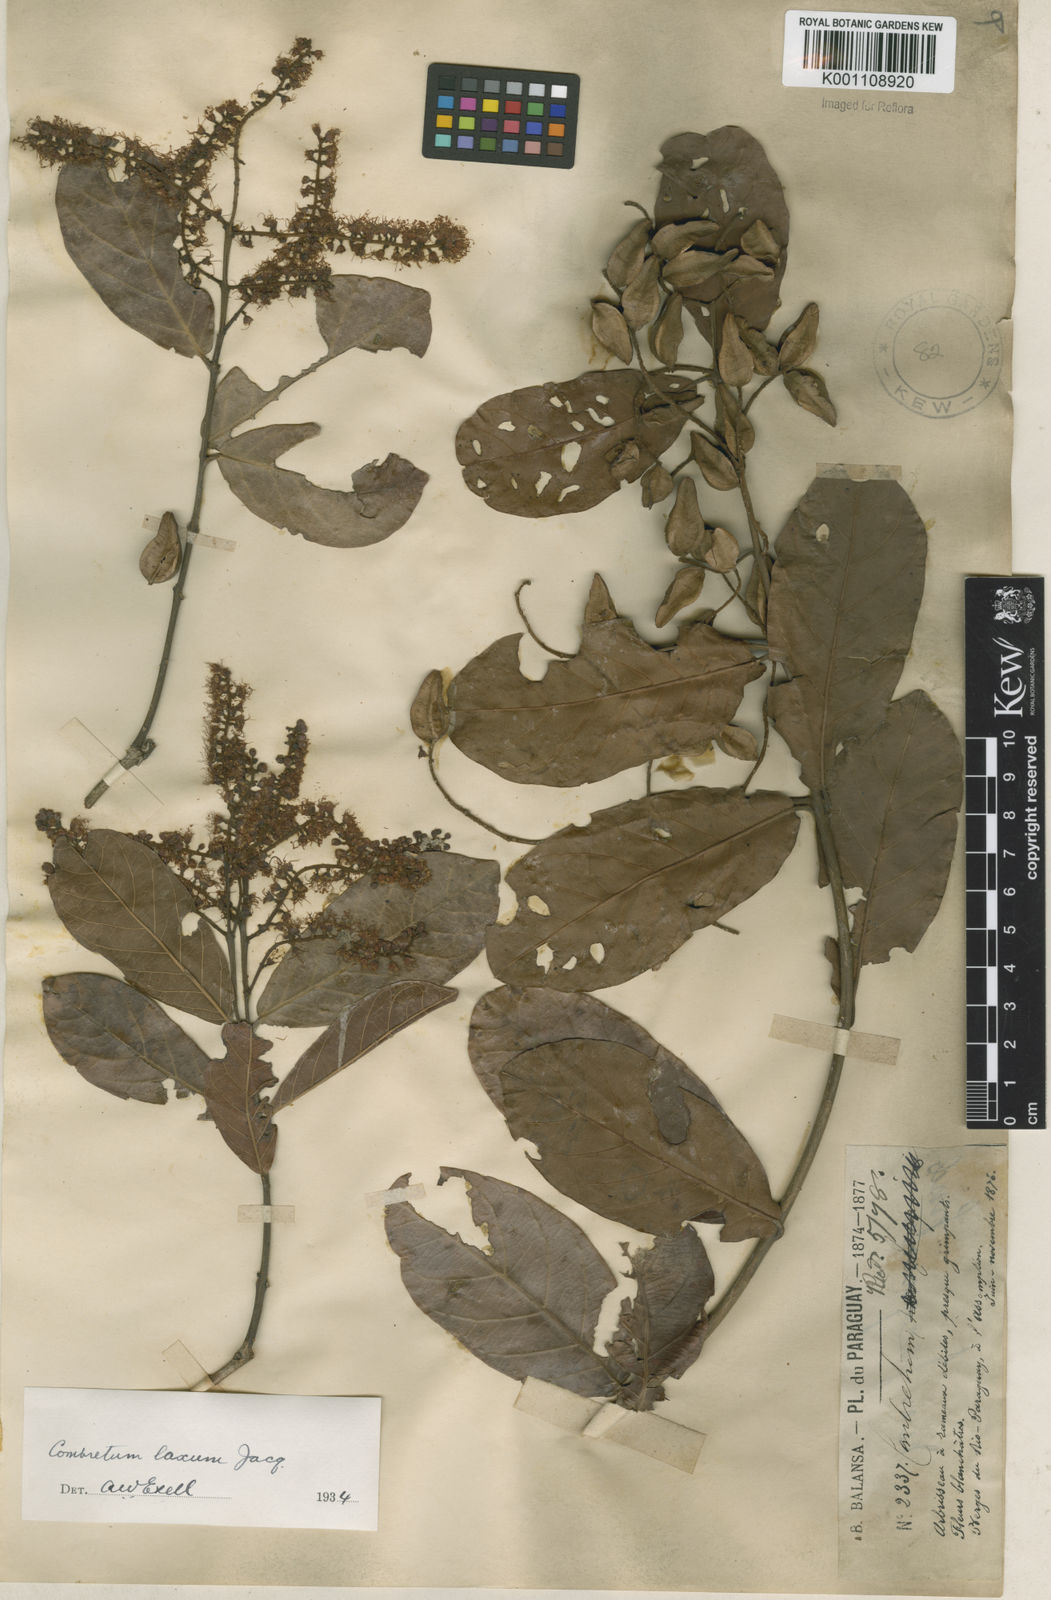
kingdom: Plantae
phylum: Tracheophyta
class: Magnoliopsida
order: Myrtales
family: Combretaceae
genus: Combretum
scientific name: Combretum laxum
